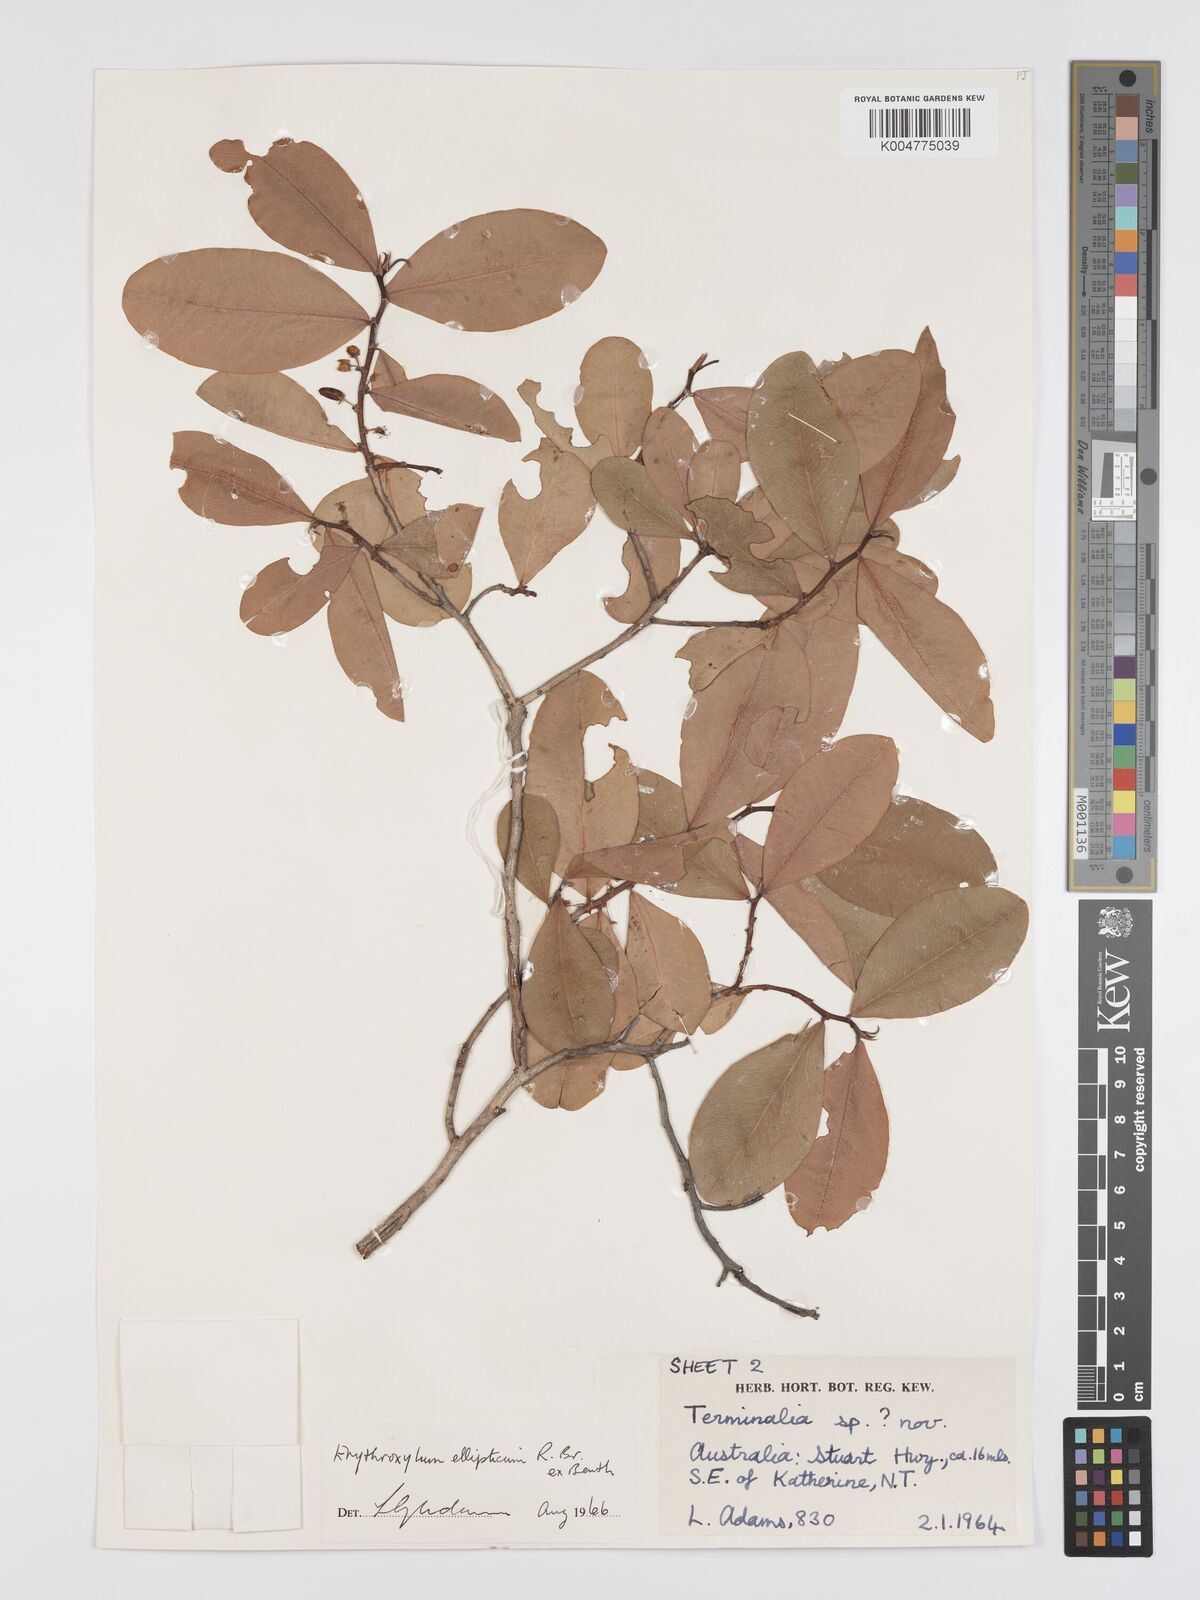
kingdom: Plantae
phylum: Tracheophyta
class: Magnoliopsida
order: Malpighiales
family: Erythroxylaceae
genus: Erythroxylum
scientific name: Erythroxylum
